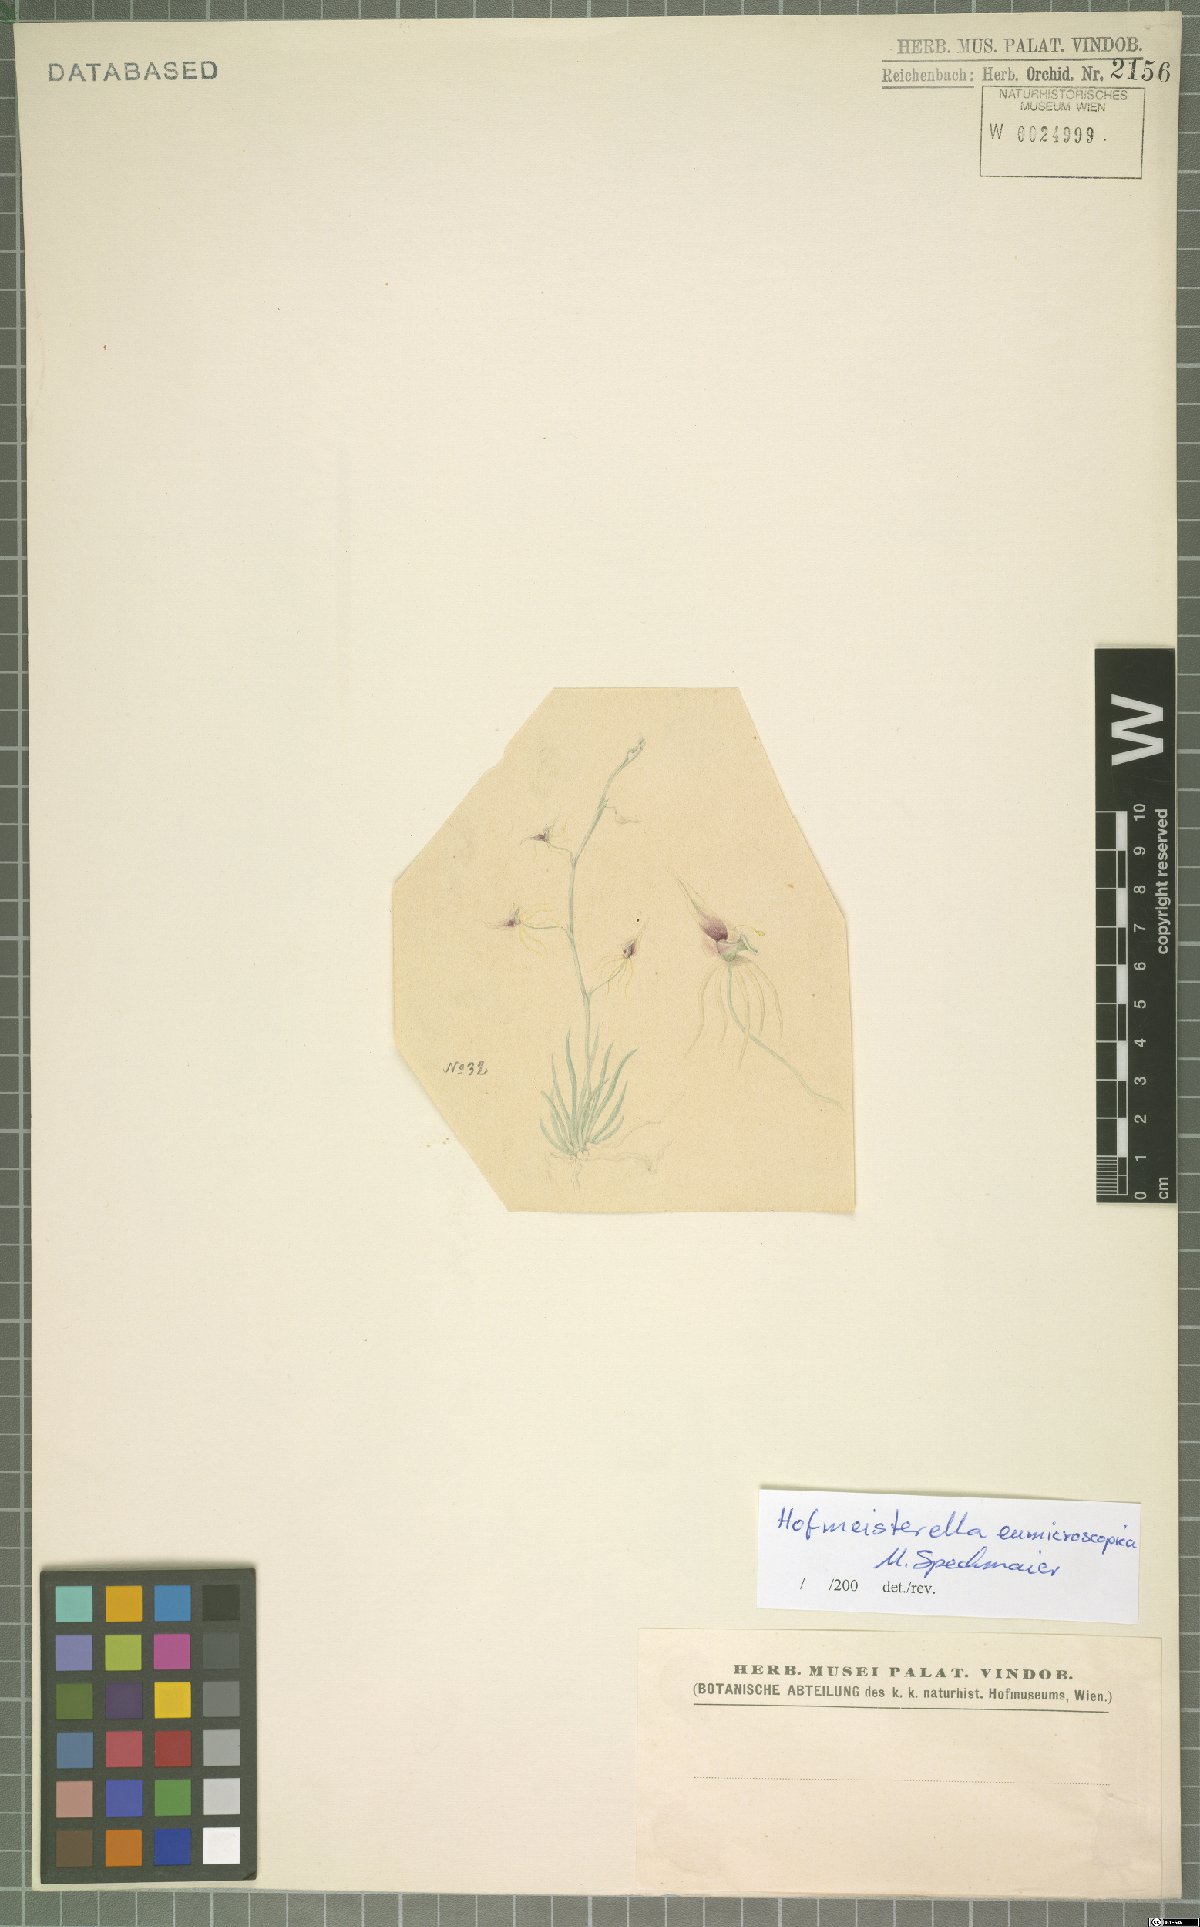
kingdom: Plantae
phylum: Tracheophyta
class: Liliopsida
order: Asparagales
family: Orchidaceae
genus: Hofmeisterella
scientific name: Hofmeisterella eumicroscopica
